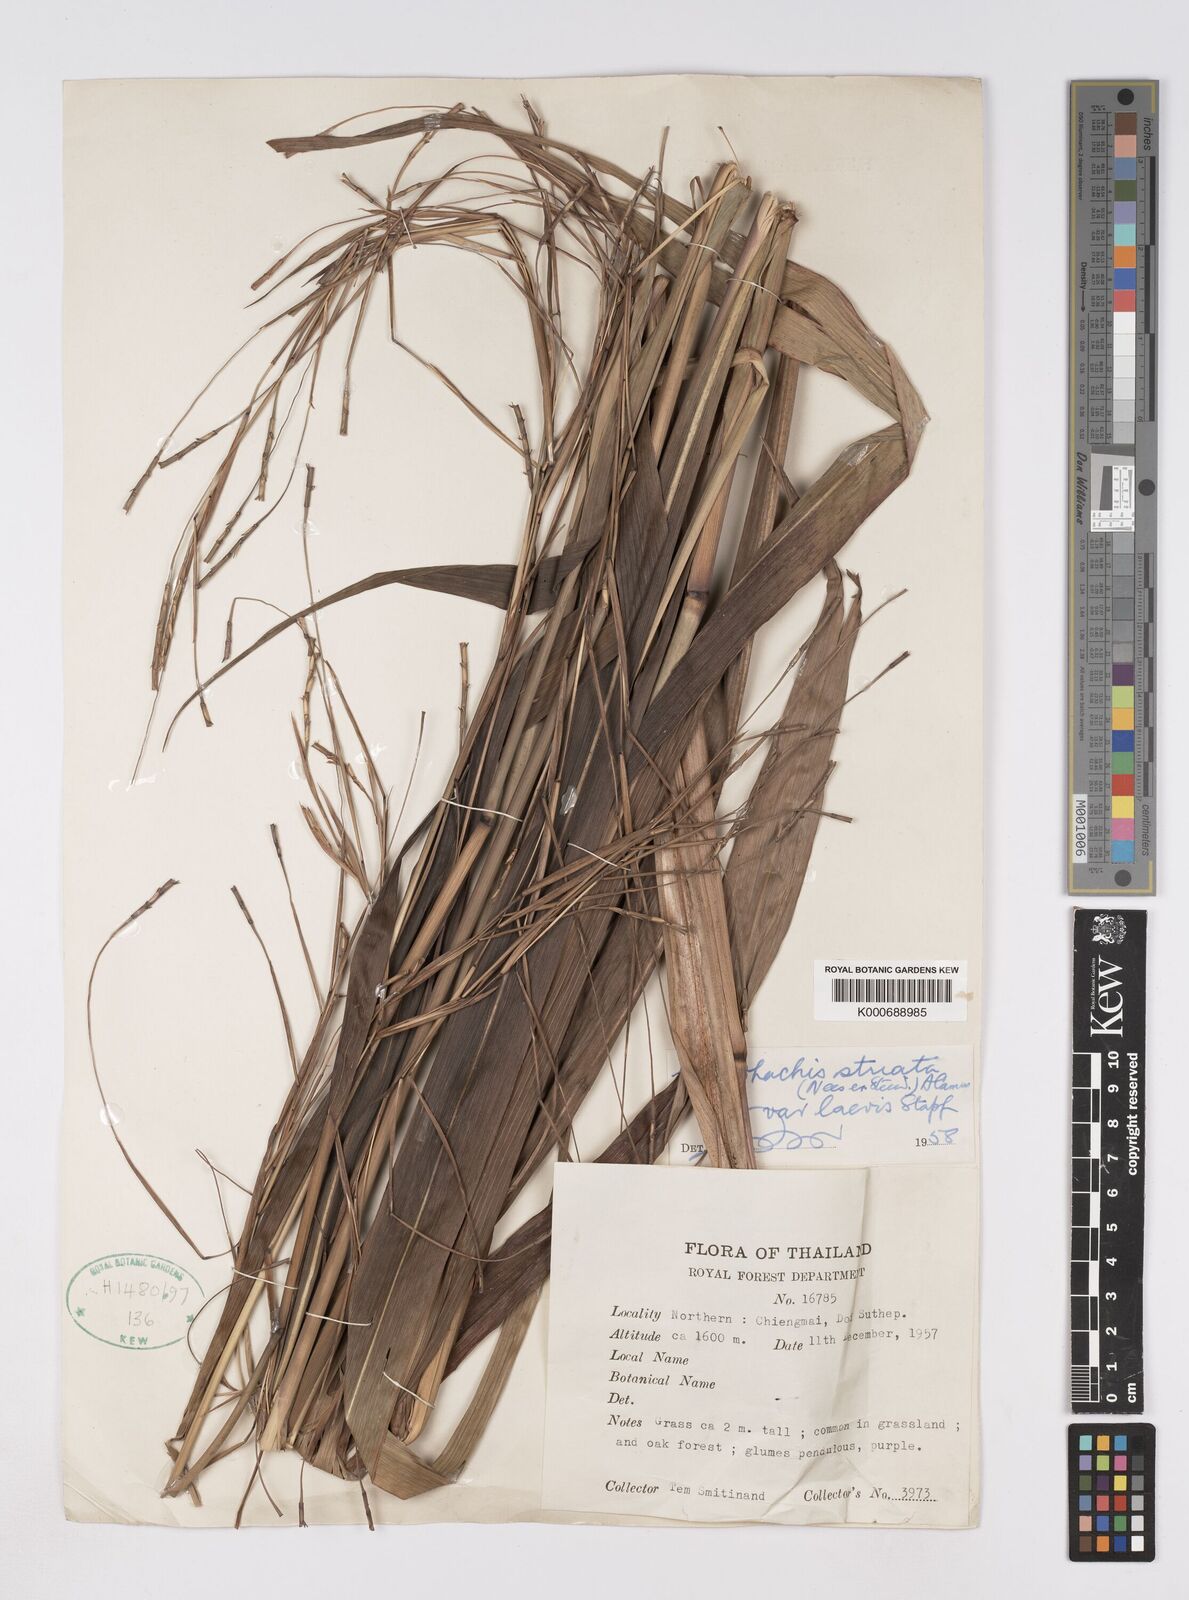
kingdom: Plantae
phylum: Tracheophyta
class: Liliopsida
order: Poales
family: Poaceae
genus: Rottboellia
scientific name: Rottboellia striata
